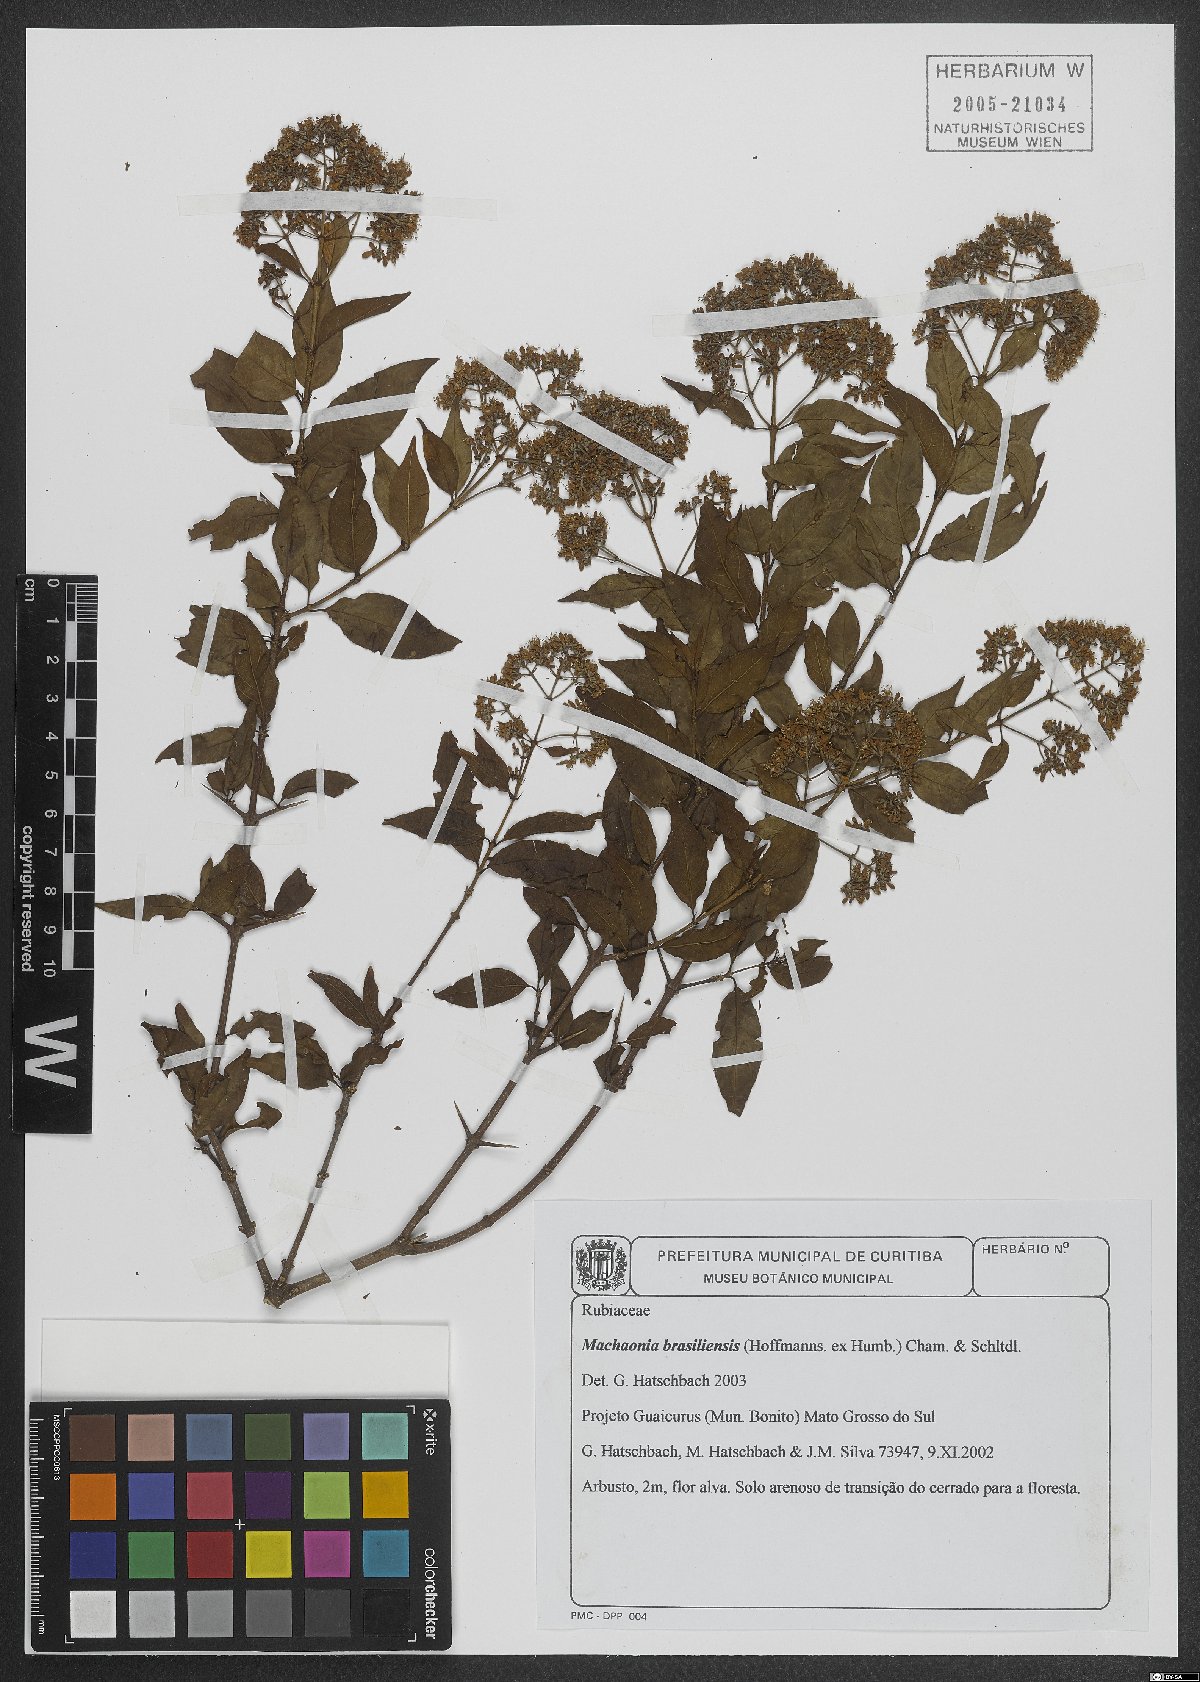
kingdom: Plantae
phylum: Tracheophyta
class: Magnoliopsida
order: Gentianales
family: Rubiaceae
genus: Machaonia
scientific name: Machaonia brasiliensis
